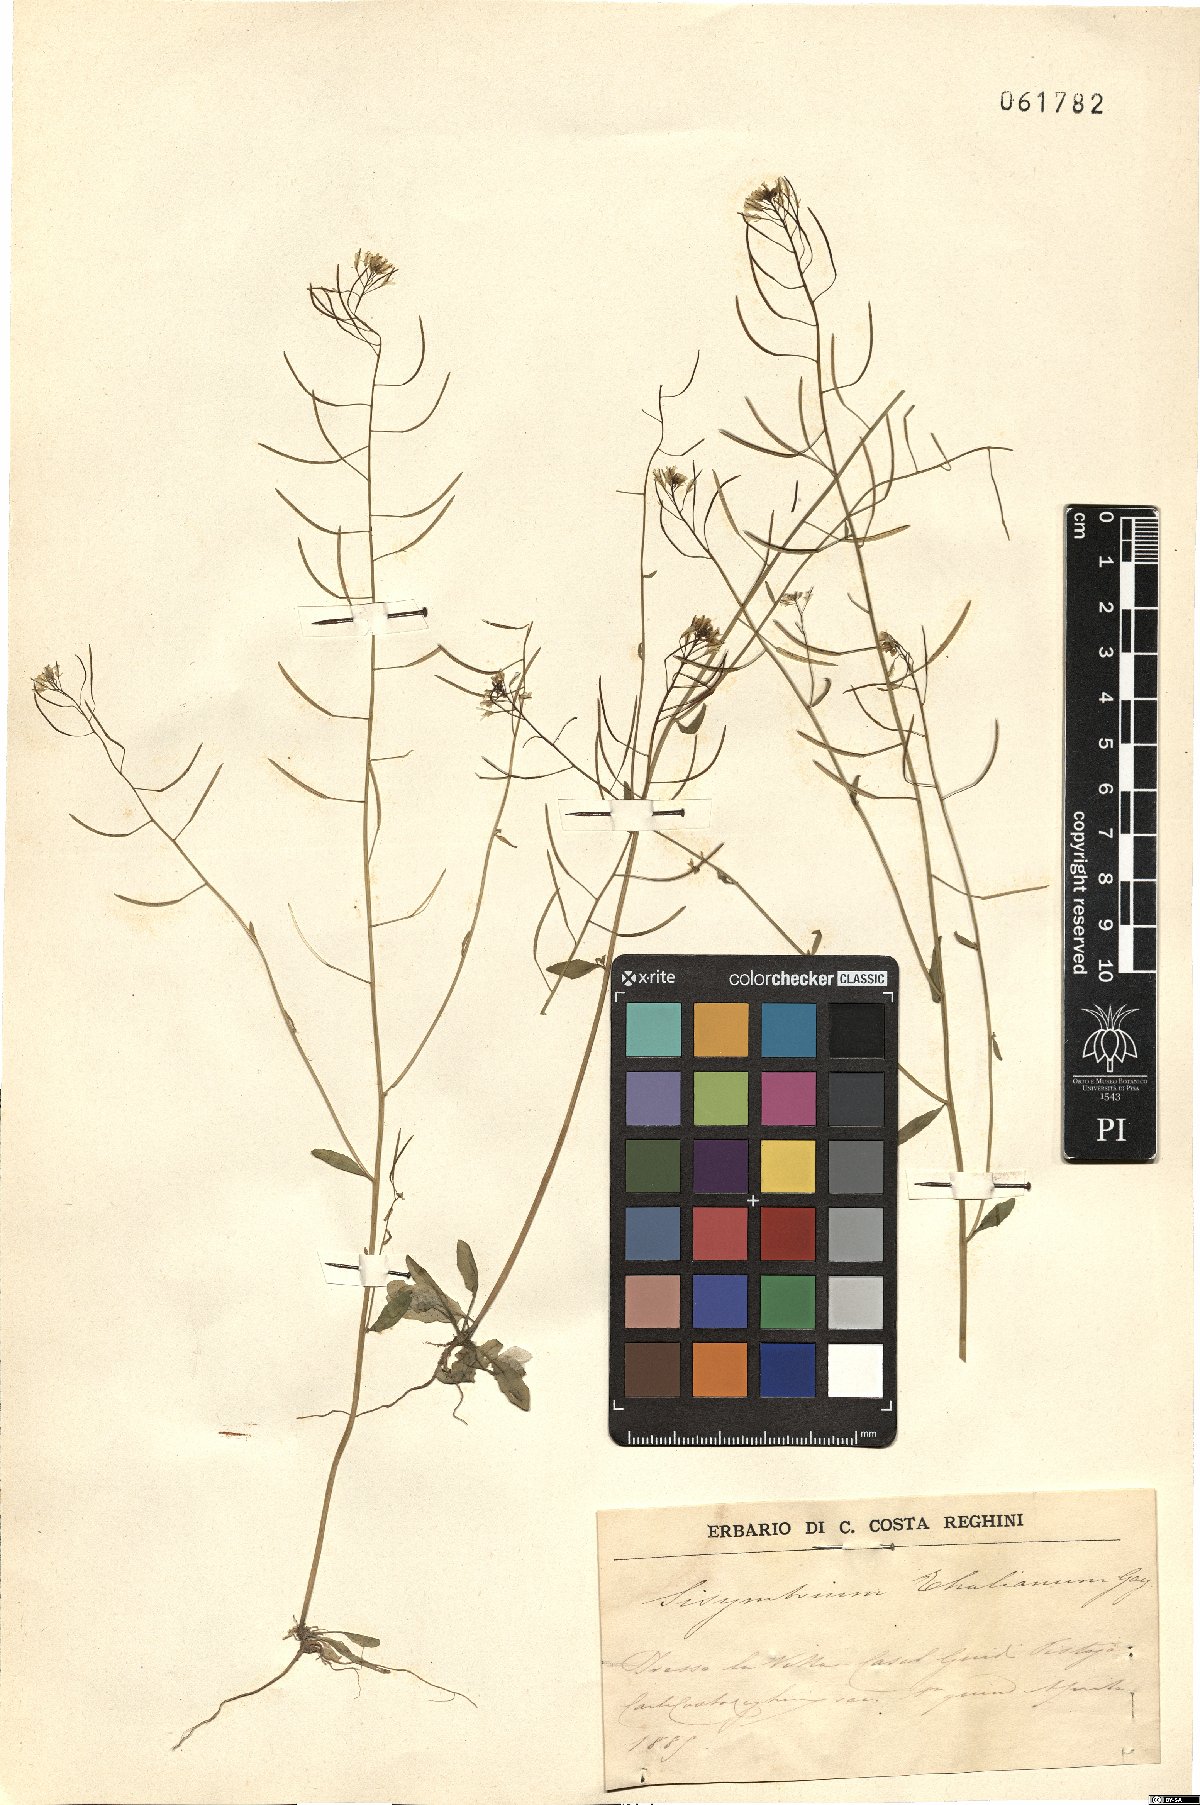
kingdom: Plantae
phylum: Tracheophyta
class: Magnoliopsida
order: Brassicales
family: Brassicaceae
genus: Arabidopsis
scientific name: Arabidopsis thaliana
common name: Thale cress
